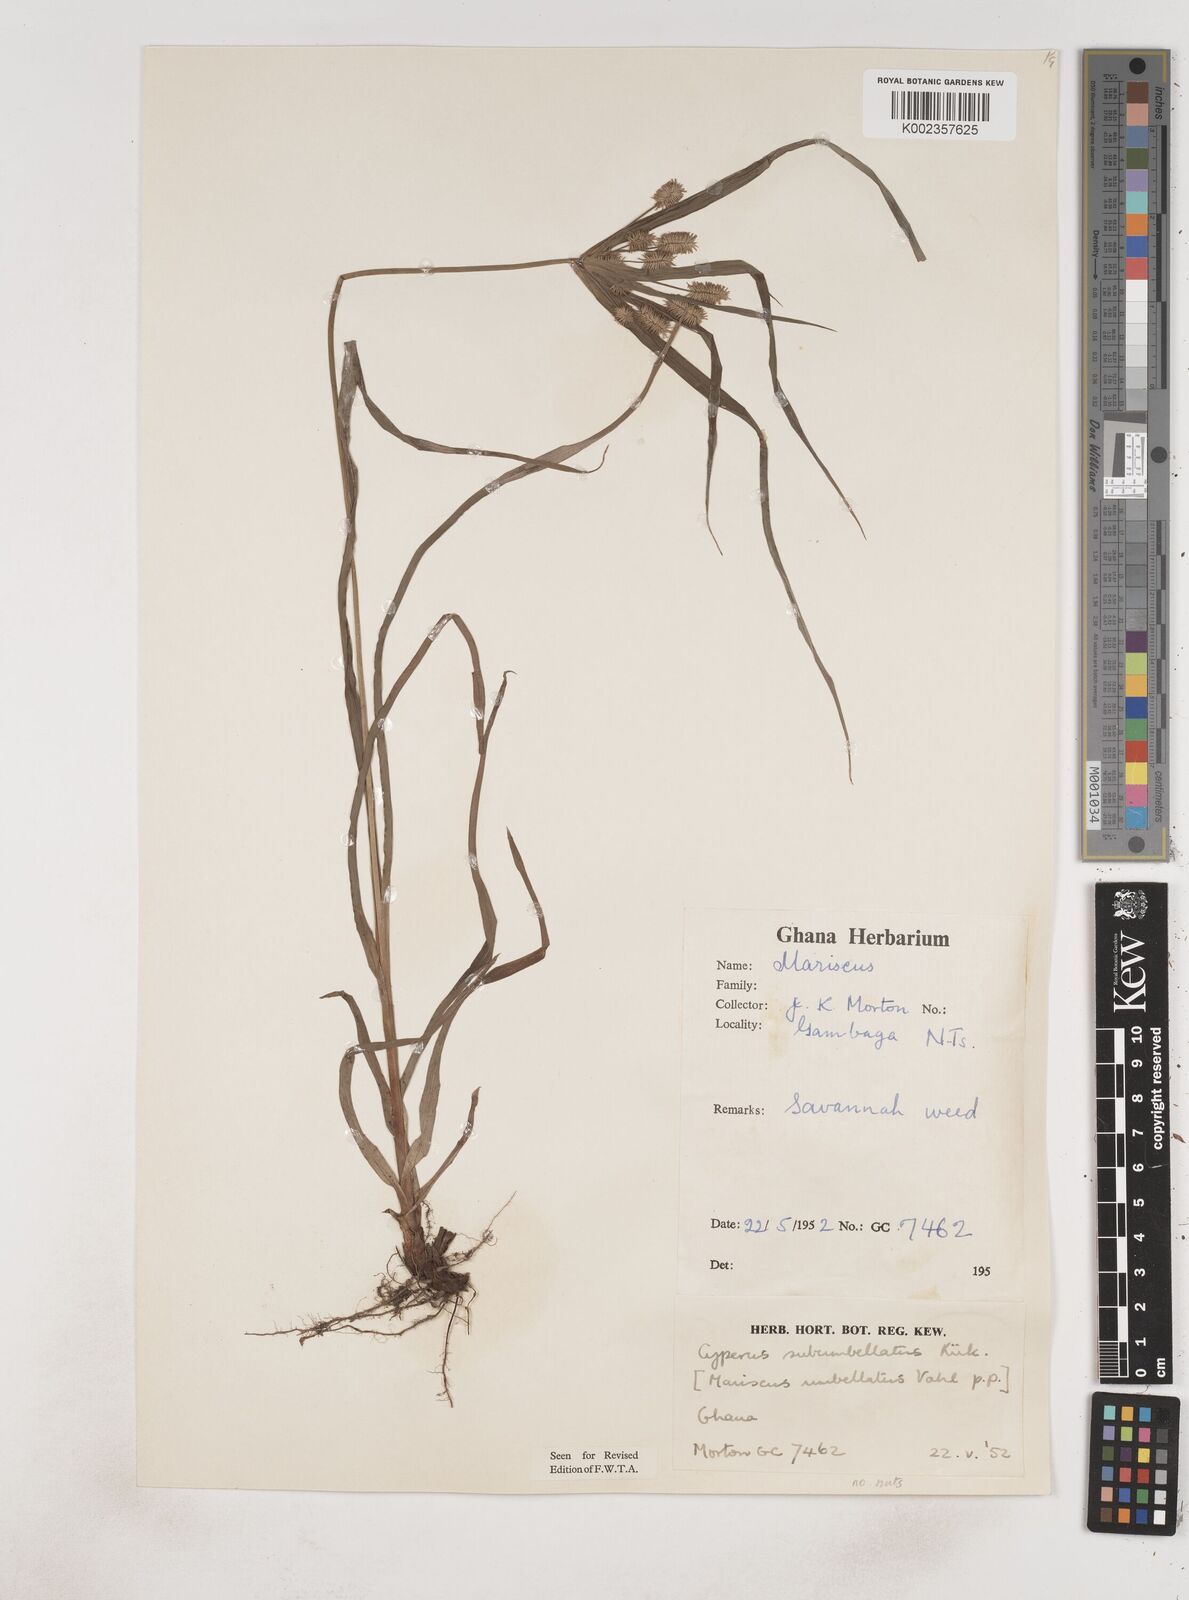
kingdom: Plantae
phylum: Tracheophyta
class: Liliopsida
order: Poales
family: Cyperaceae
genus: Cyperus
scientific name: Cyperus cyperoides
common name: Pacific island flat sedge
